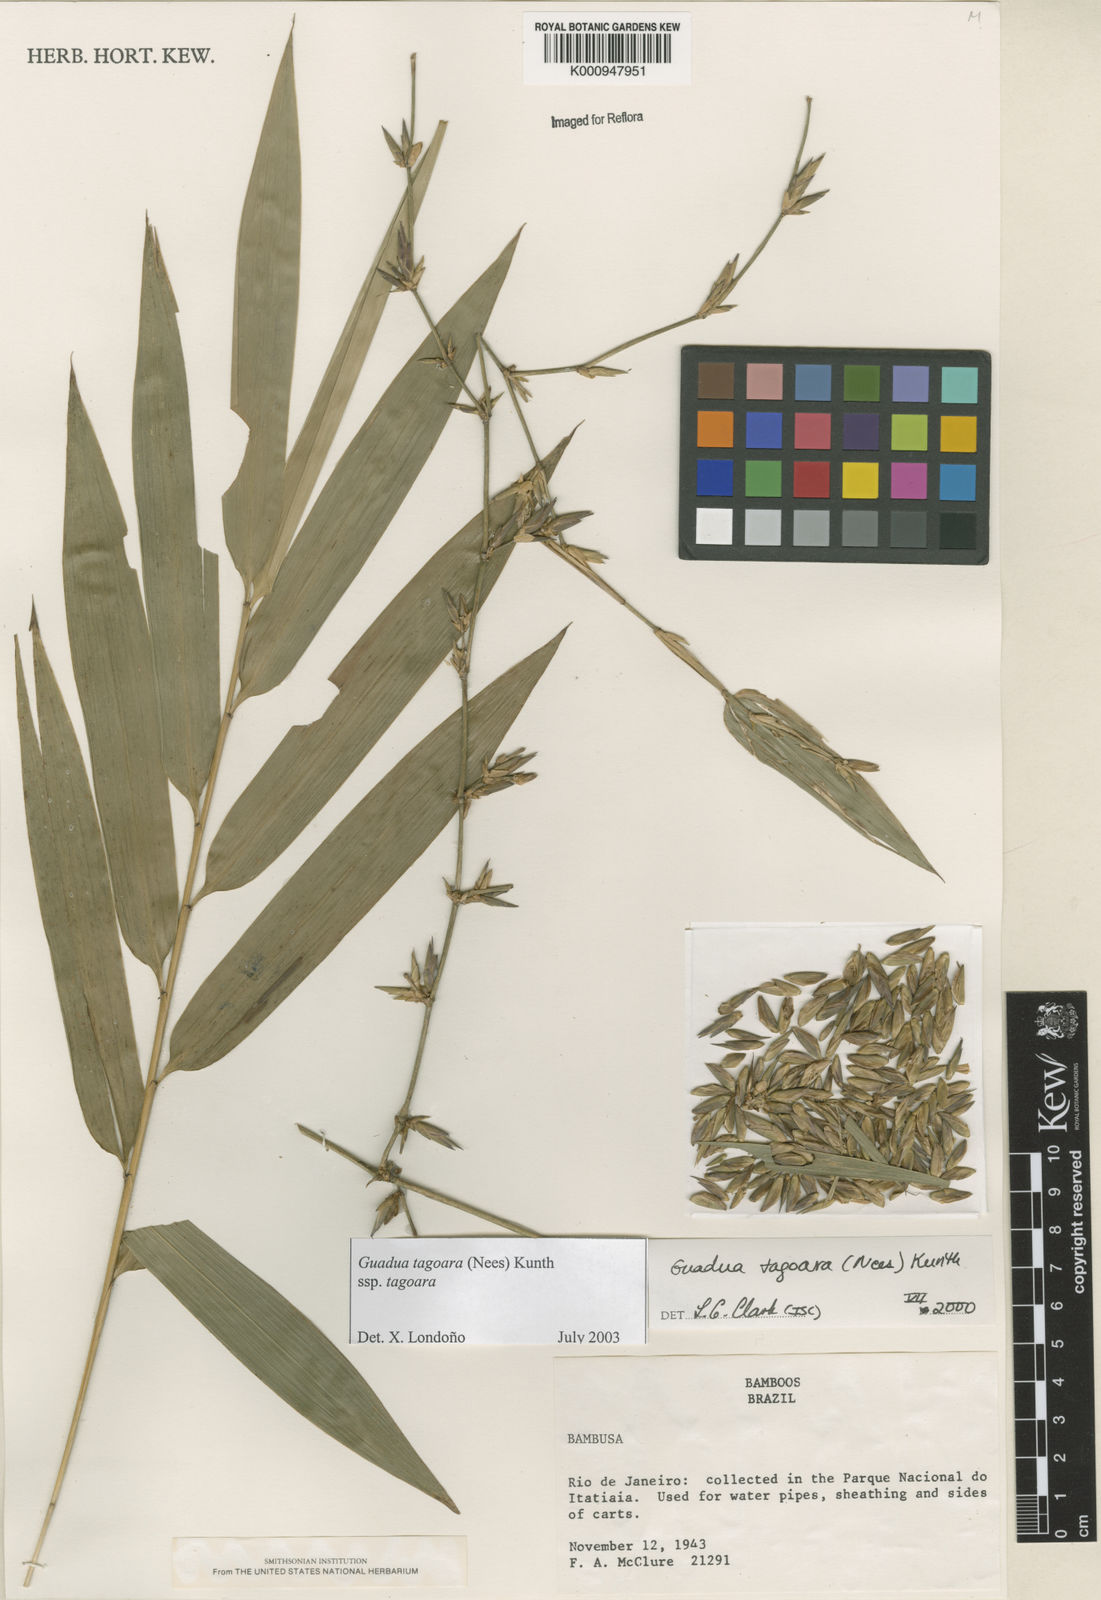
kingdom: Plantae
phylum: Tracheophyta
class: Liliopsida
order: Poales
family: Poaceae
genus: Guadua
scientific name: Guadua tagoara
